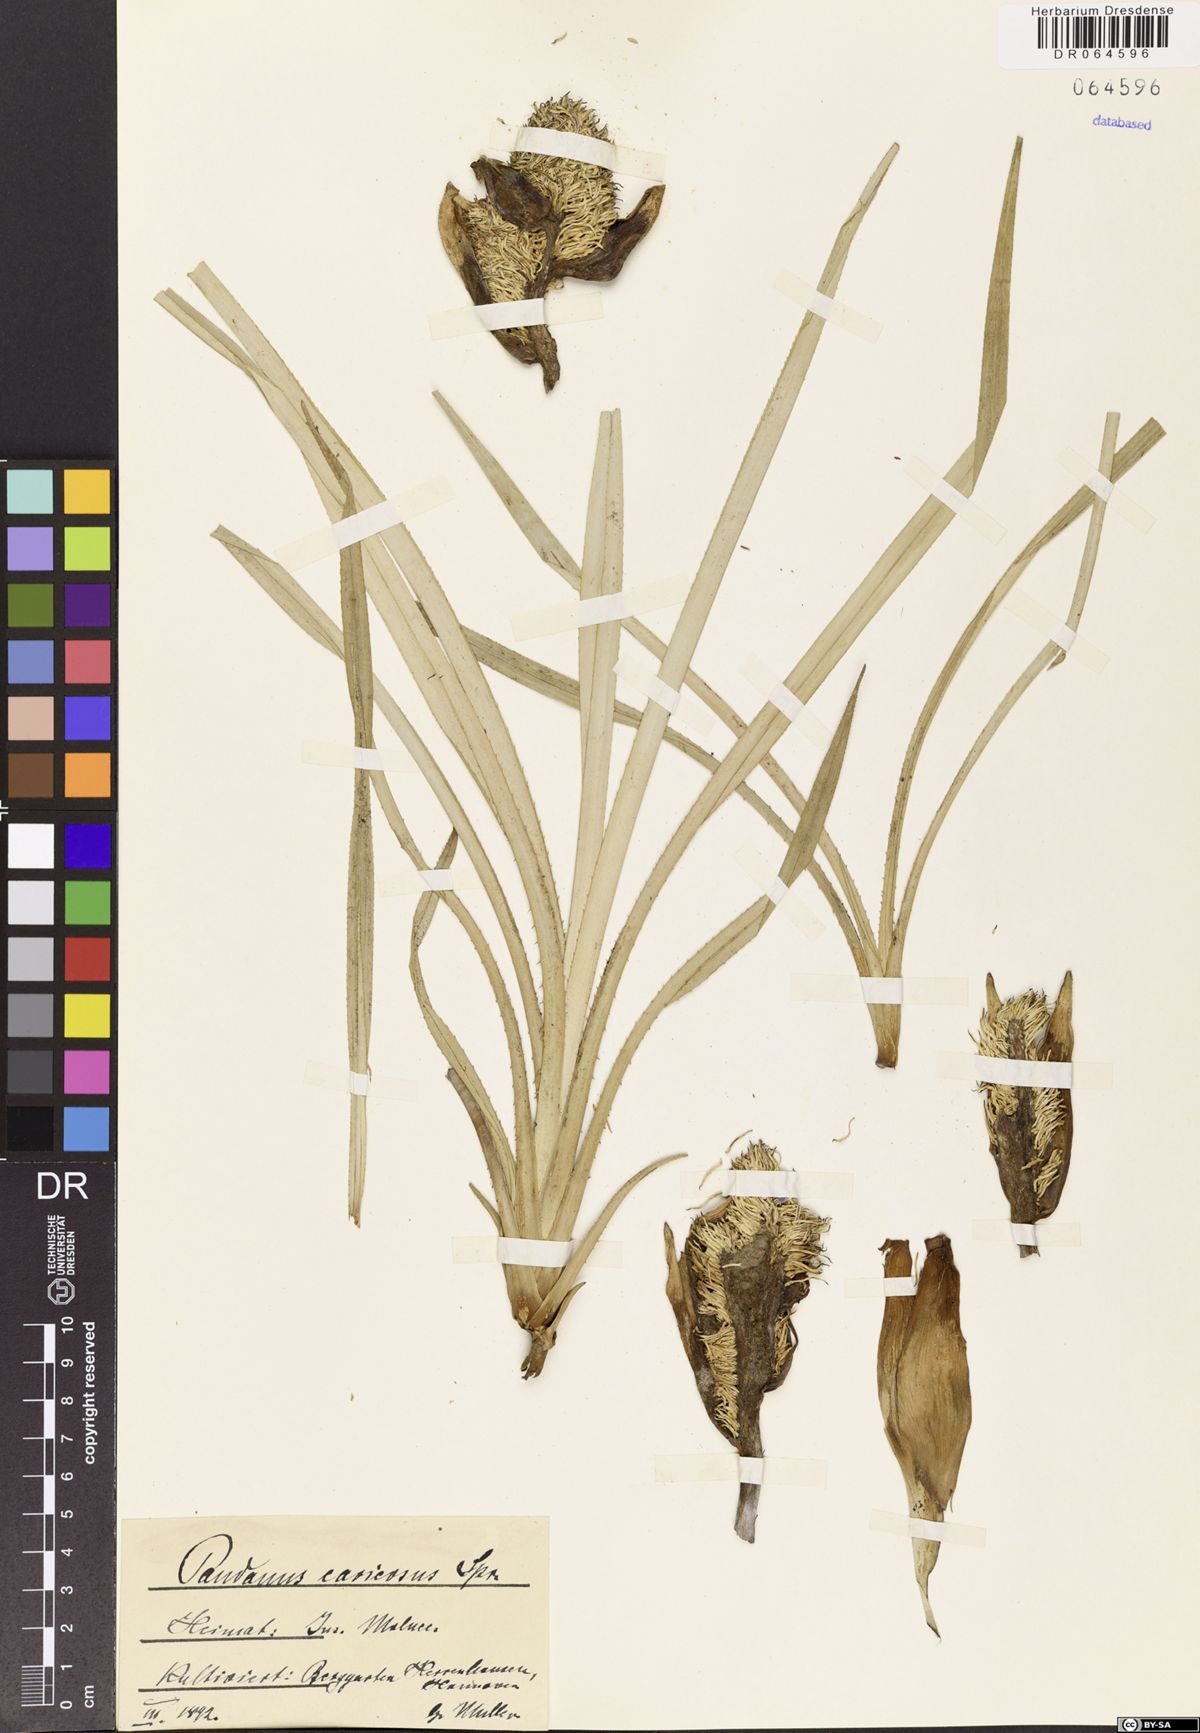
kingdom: Plantae
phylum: Tracheophyta
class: Liliopsida
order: Pandanales
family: Pandanaceae
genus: Pandanus
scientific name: Pandanus caricosus
